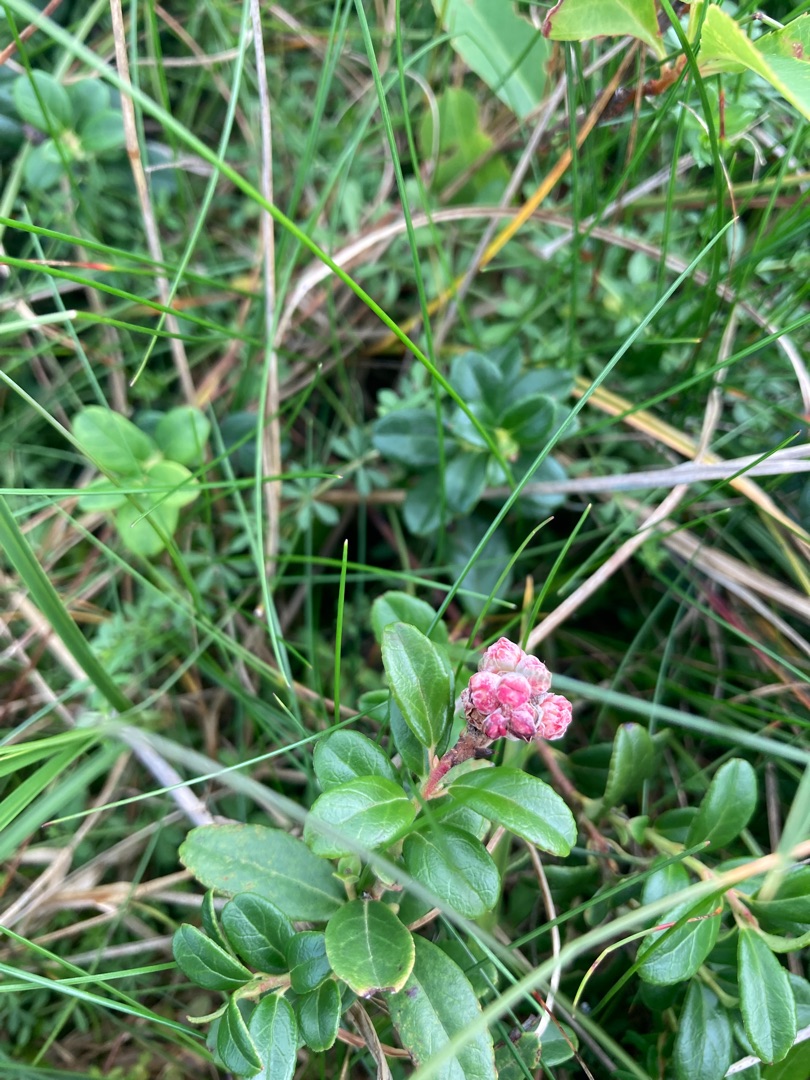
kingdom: Plantae
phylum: Tracheophyta
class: Magnoliopsida
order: Ericales
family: Ericaceae
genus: Vaccinium
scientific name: Vaccinium vitis-idaea
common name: Tyttebær
